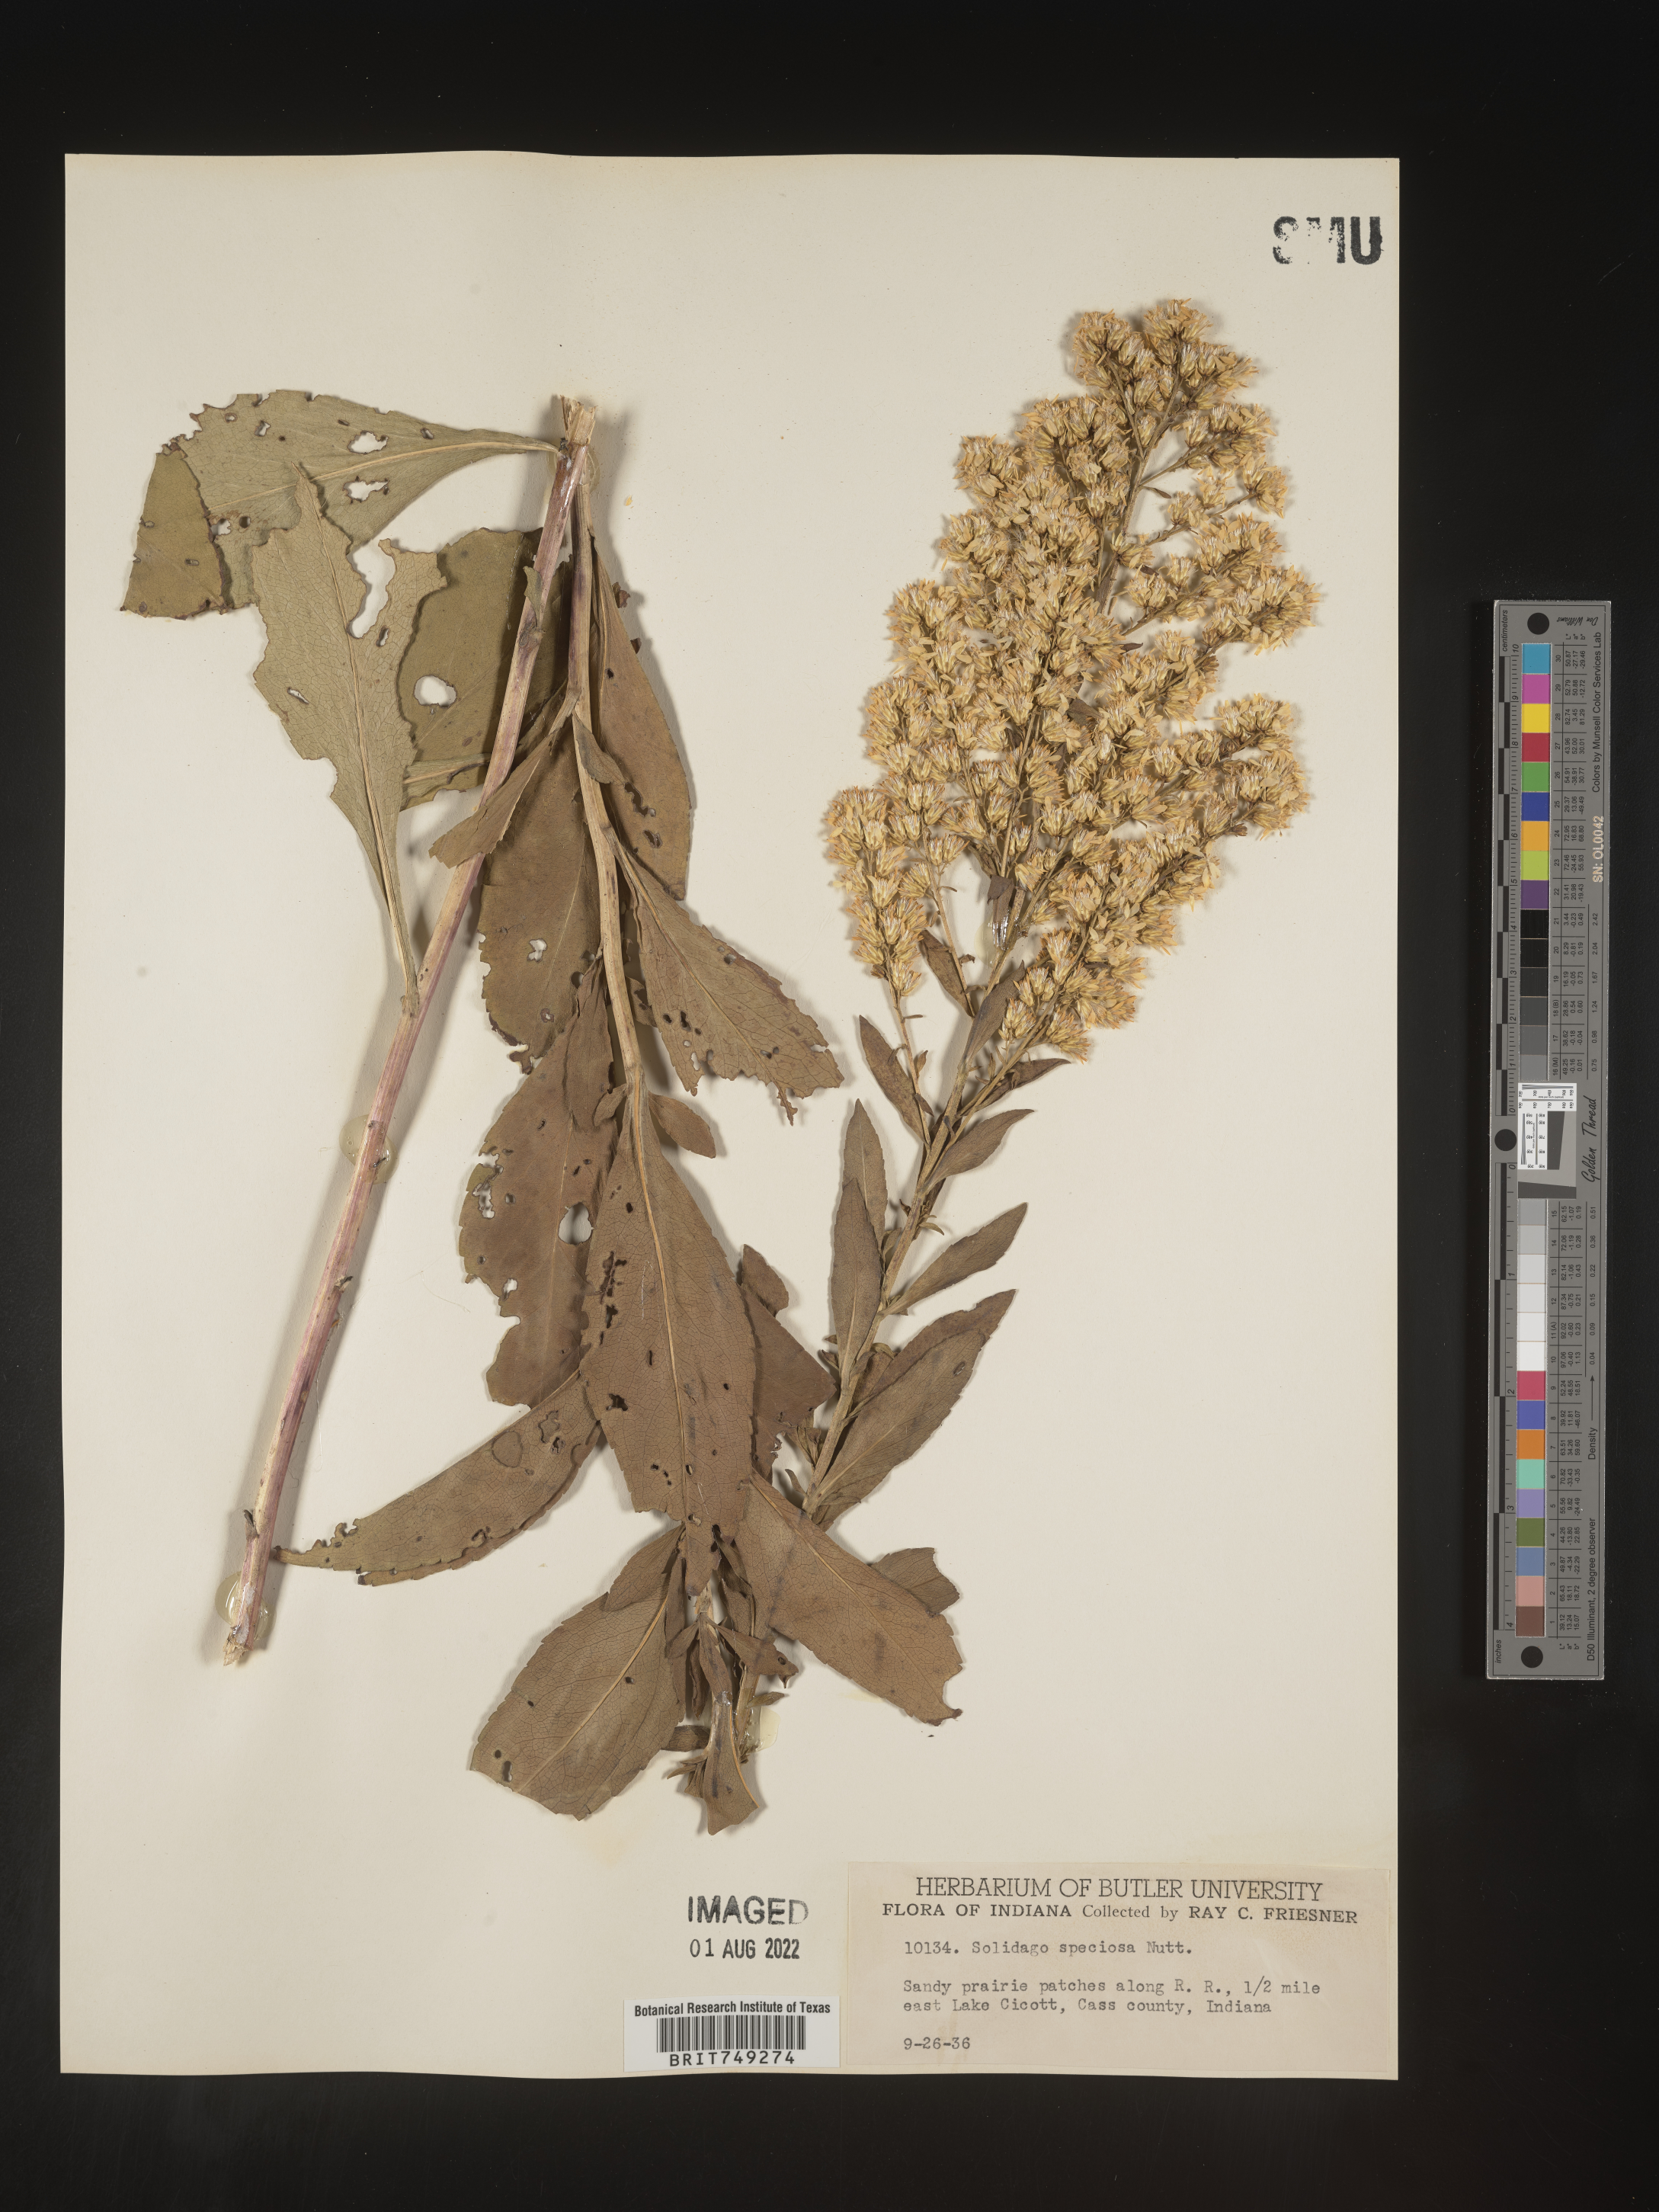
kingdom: Plantae
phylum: Tracheophyta
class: Magnoliopsida
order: Asterales
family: Asteraceae
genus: Solidago
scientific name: Solidago speciosa
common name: Showy goldenrod
